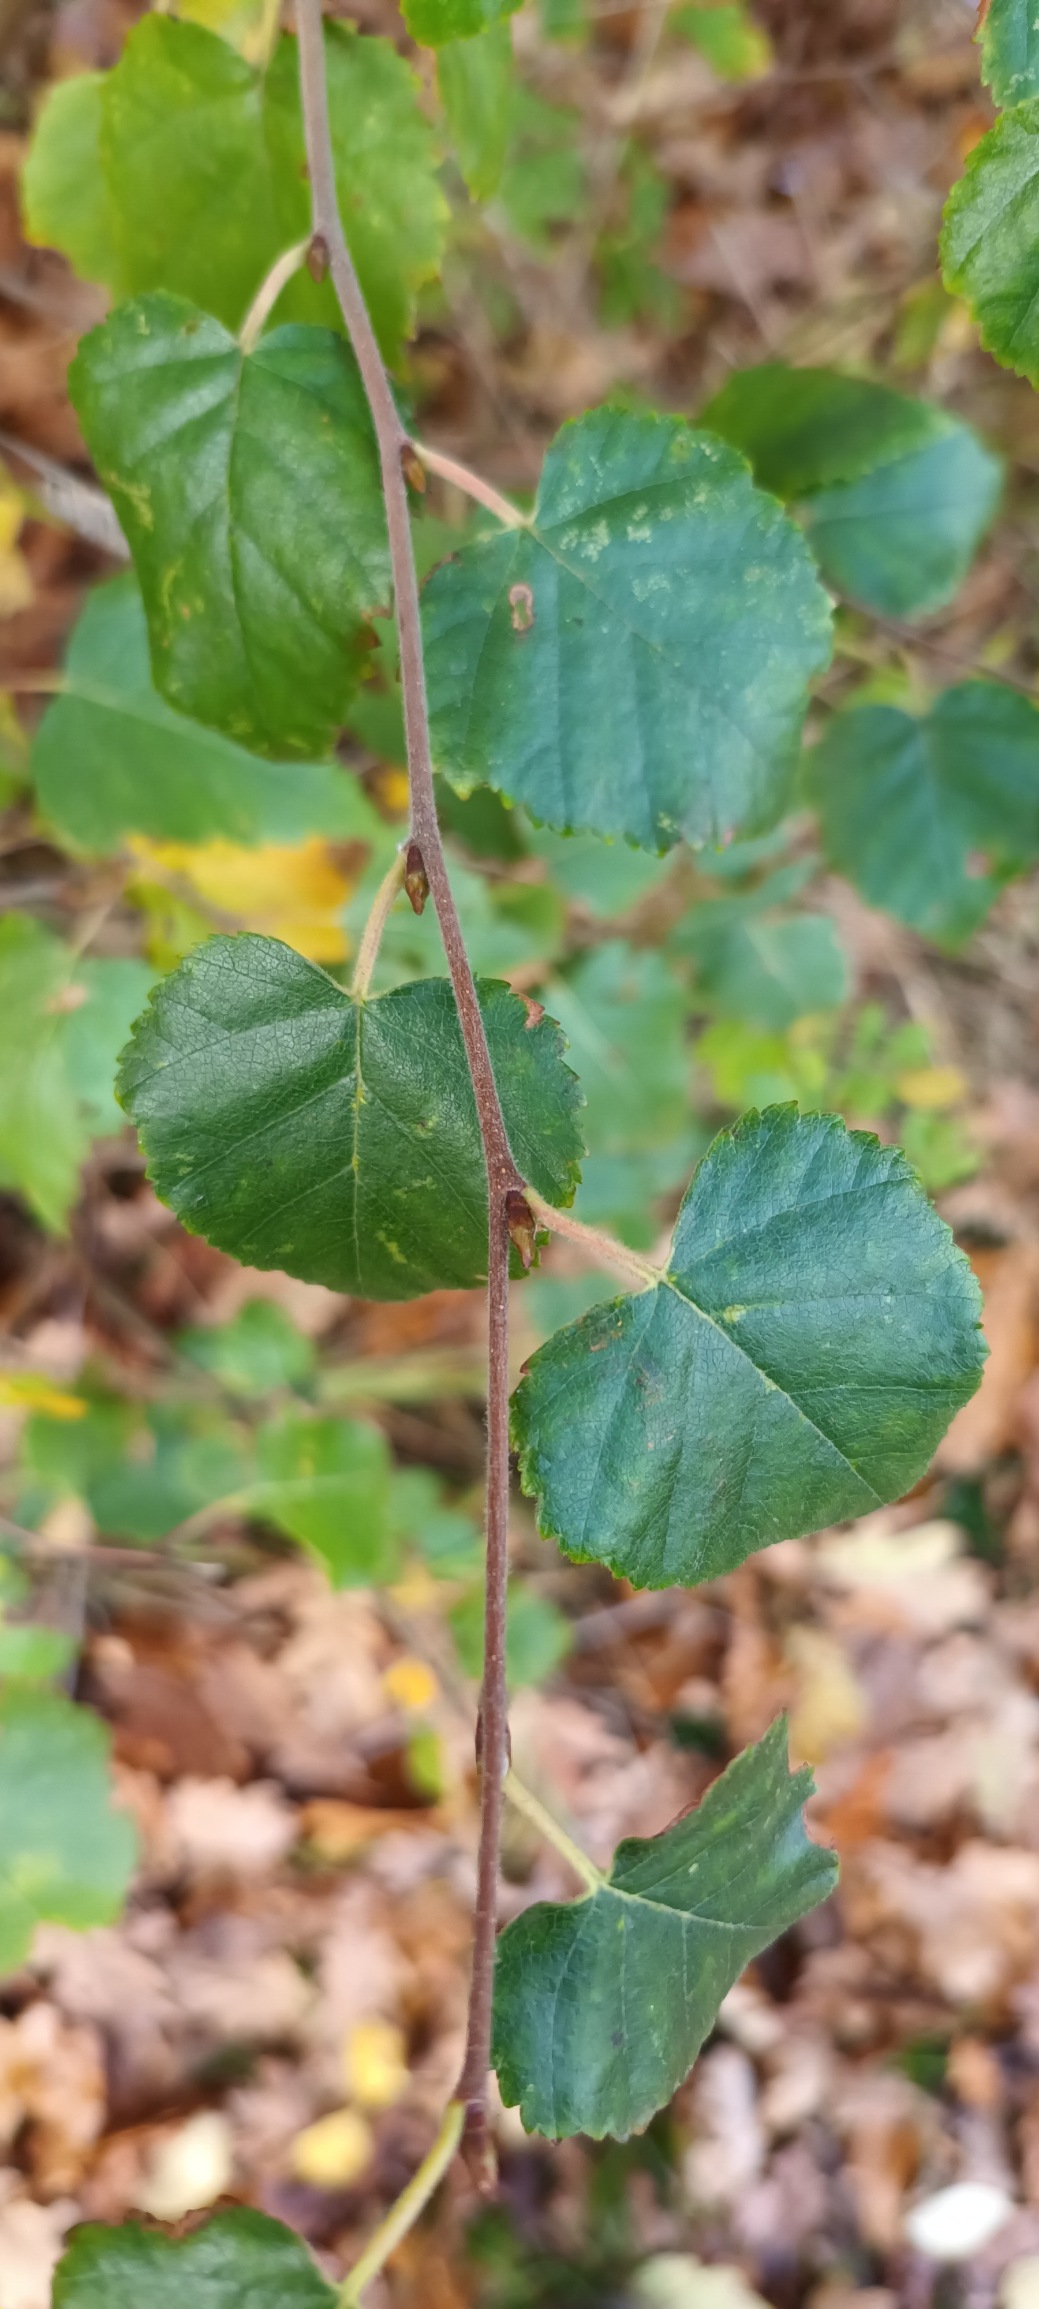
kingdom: Plantae
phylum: Tracheophyta
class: Magnoliopsida
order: Fagales
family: Betulaceae
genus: Betula
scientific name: Betula pubescens
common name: Dun-birk
